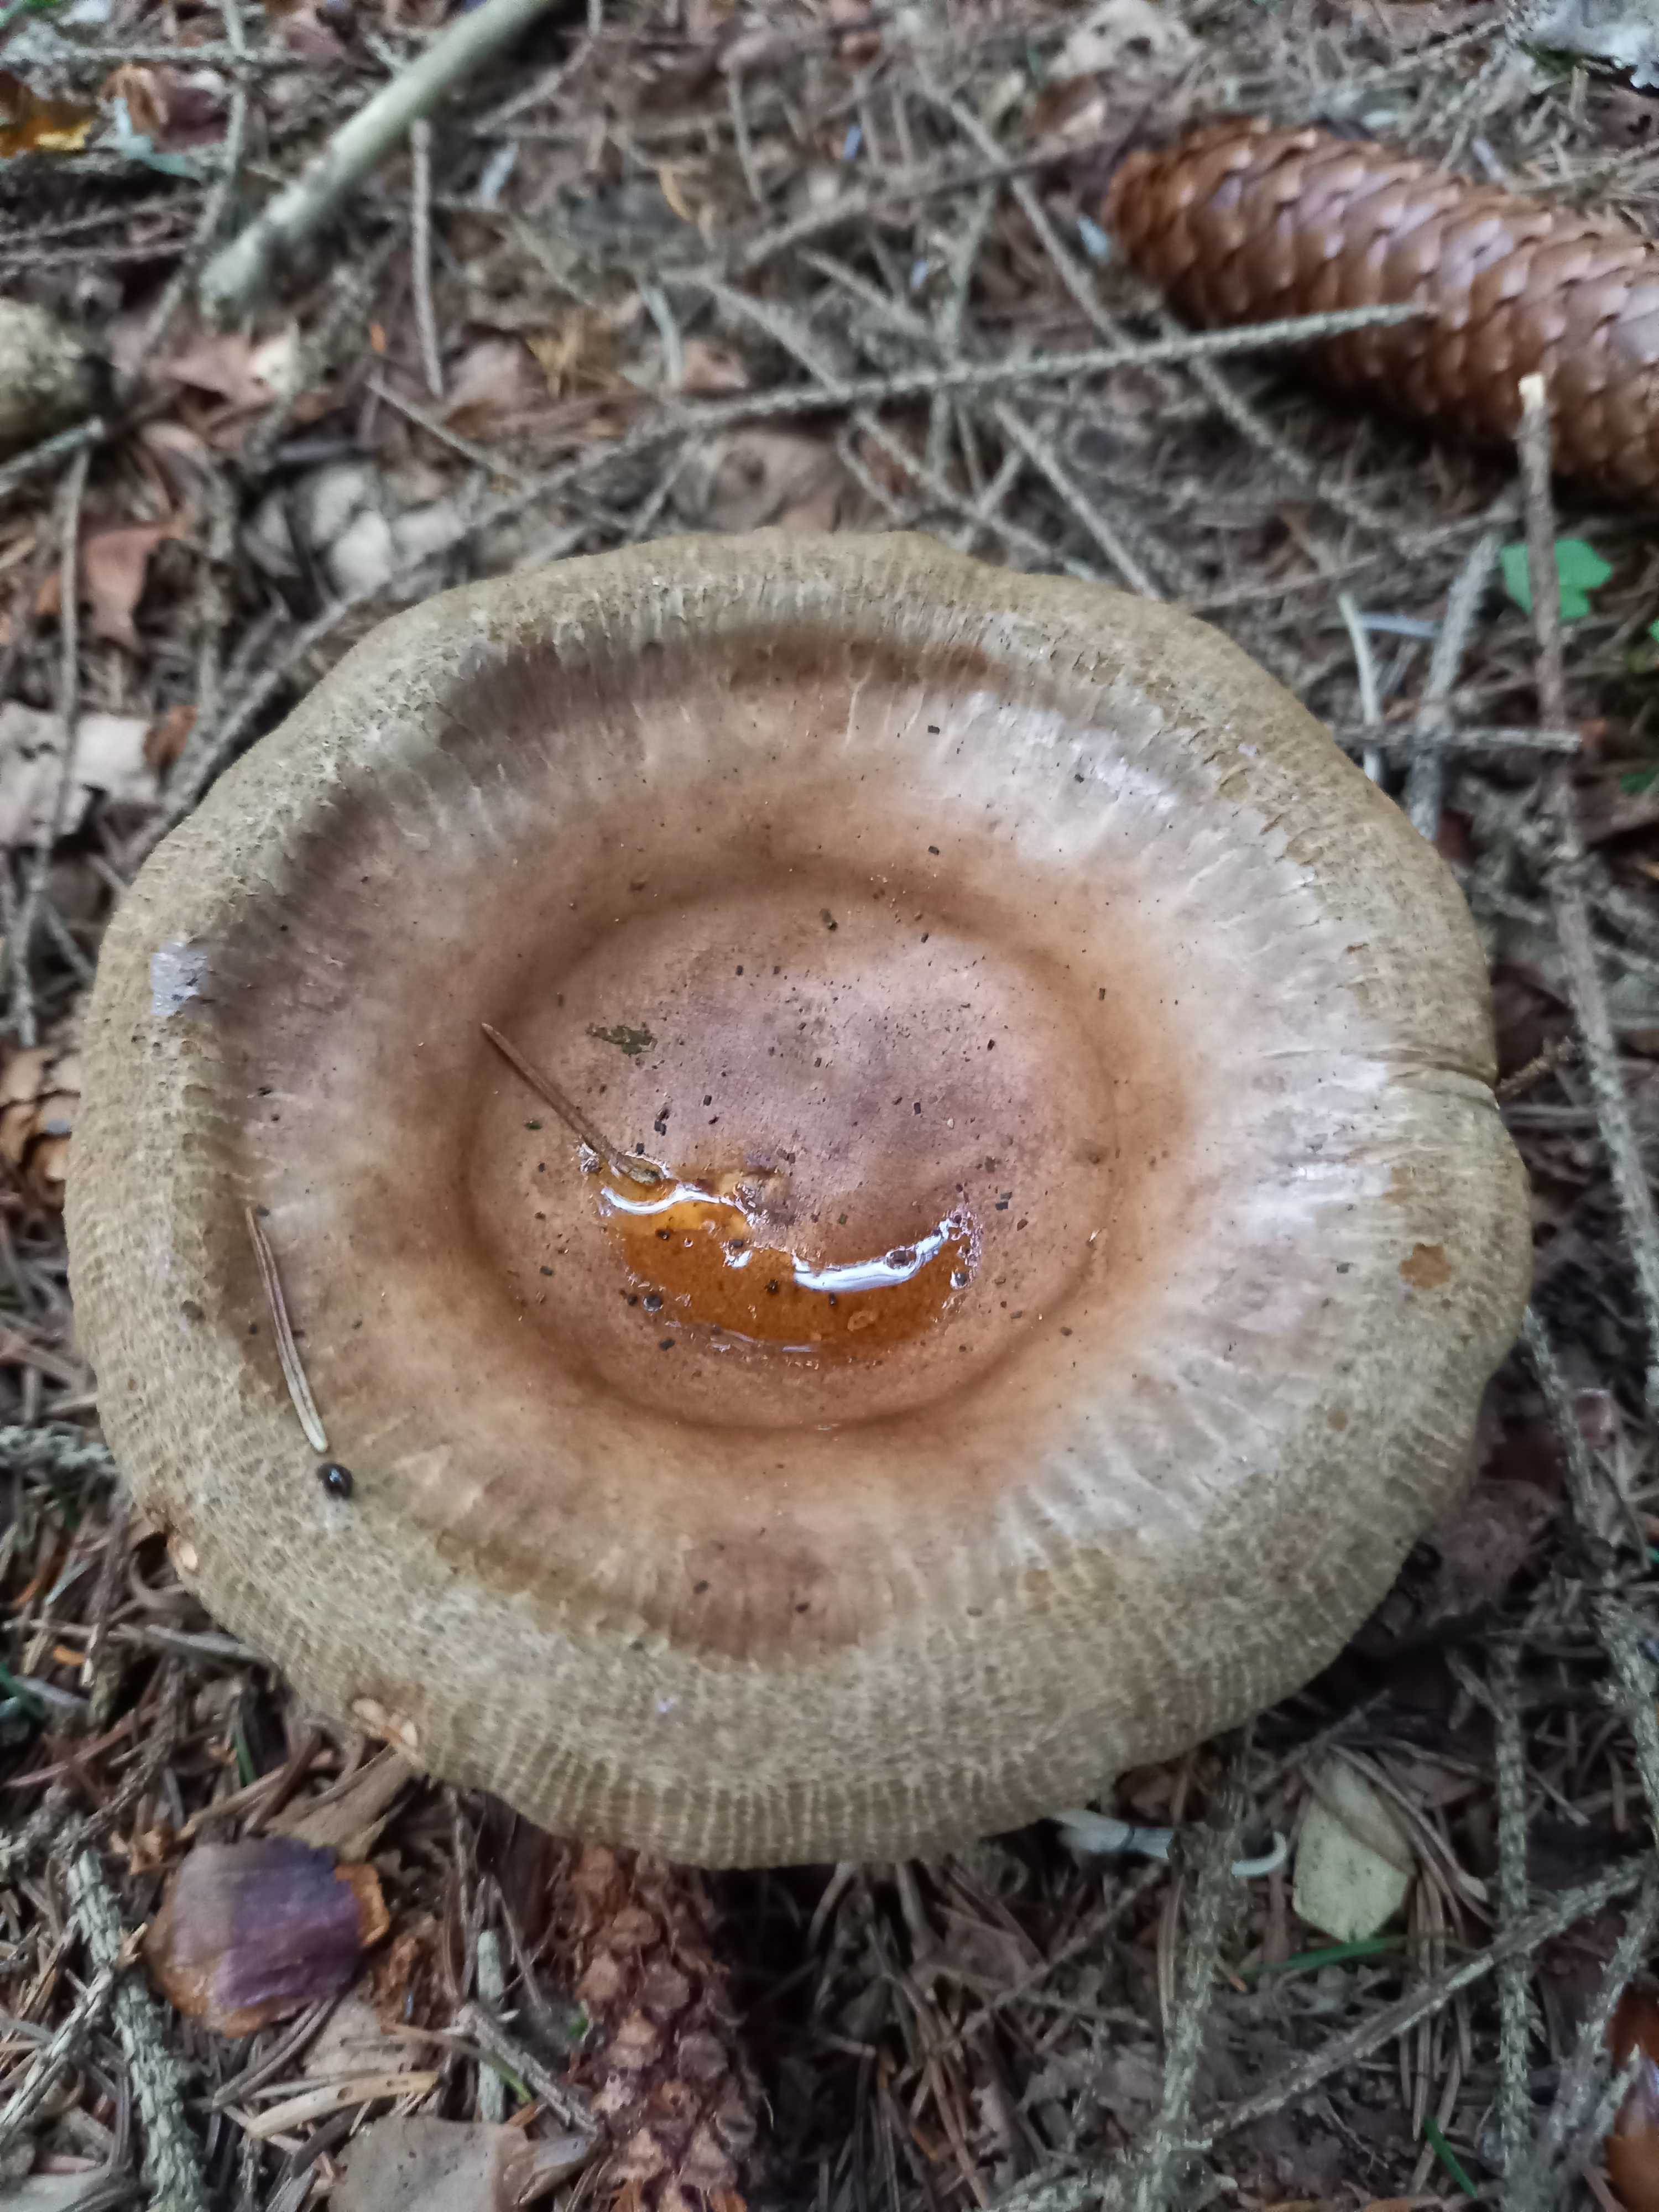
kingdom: Fungi
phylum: Basidiomycota
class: Agaricomycetes
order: Boletales
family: Paxillaceae
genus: Paxillus
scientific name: Paxillus involutus
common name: almindelig netbladhat
